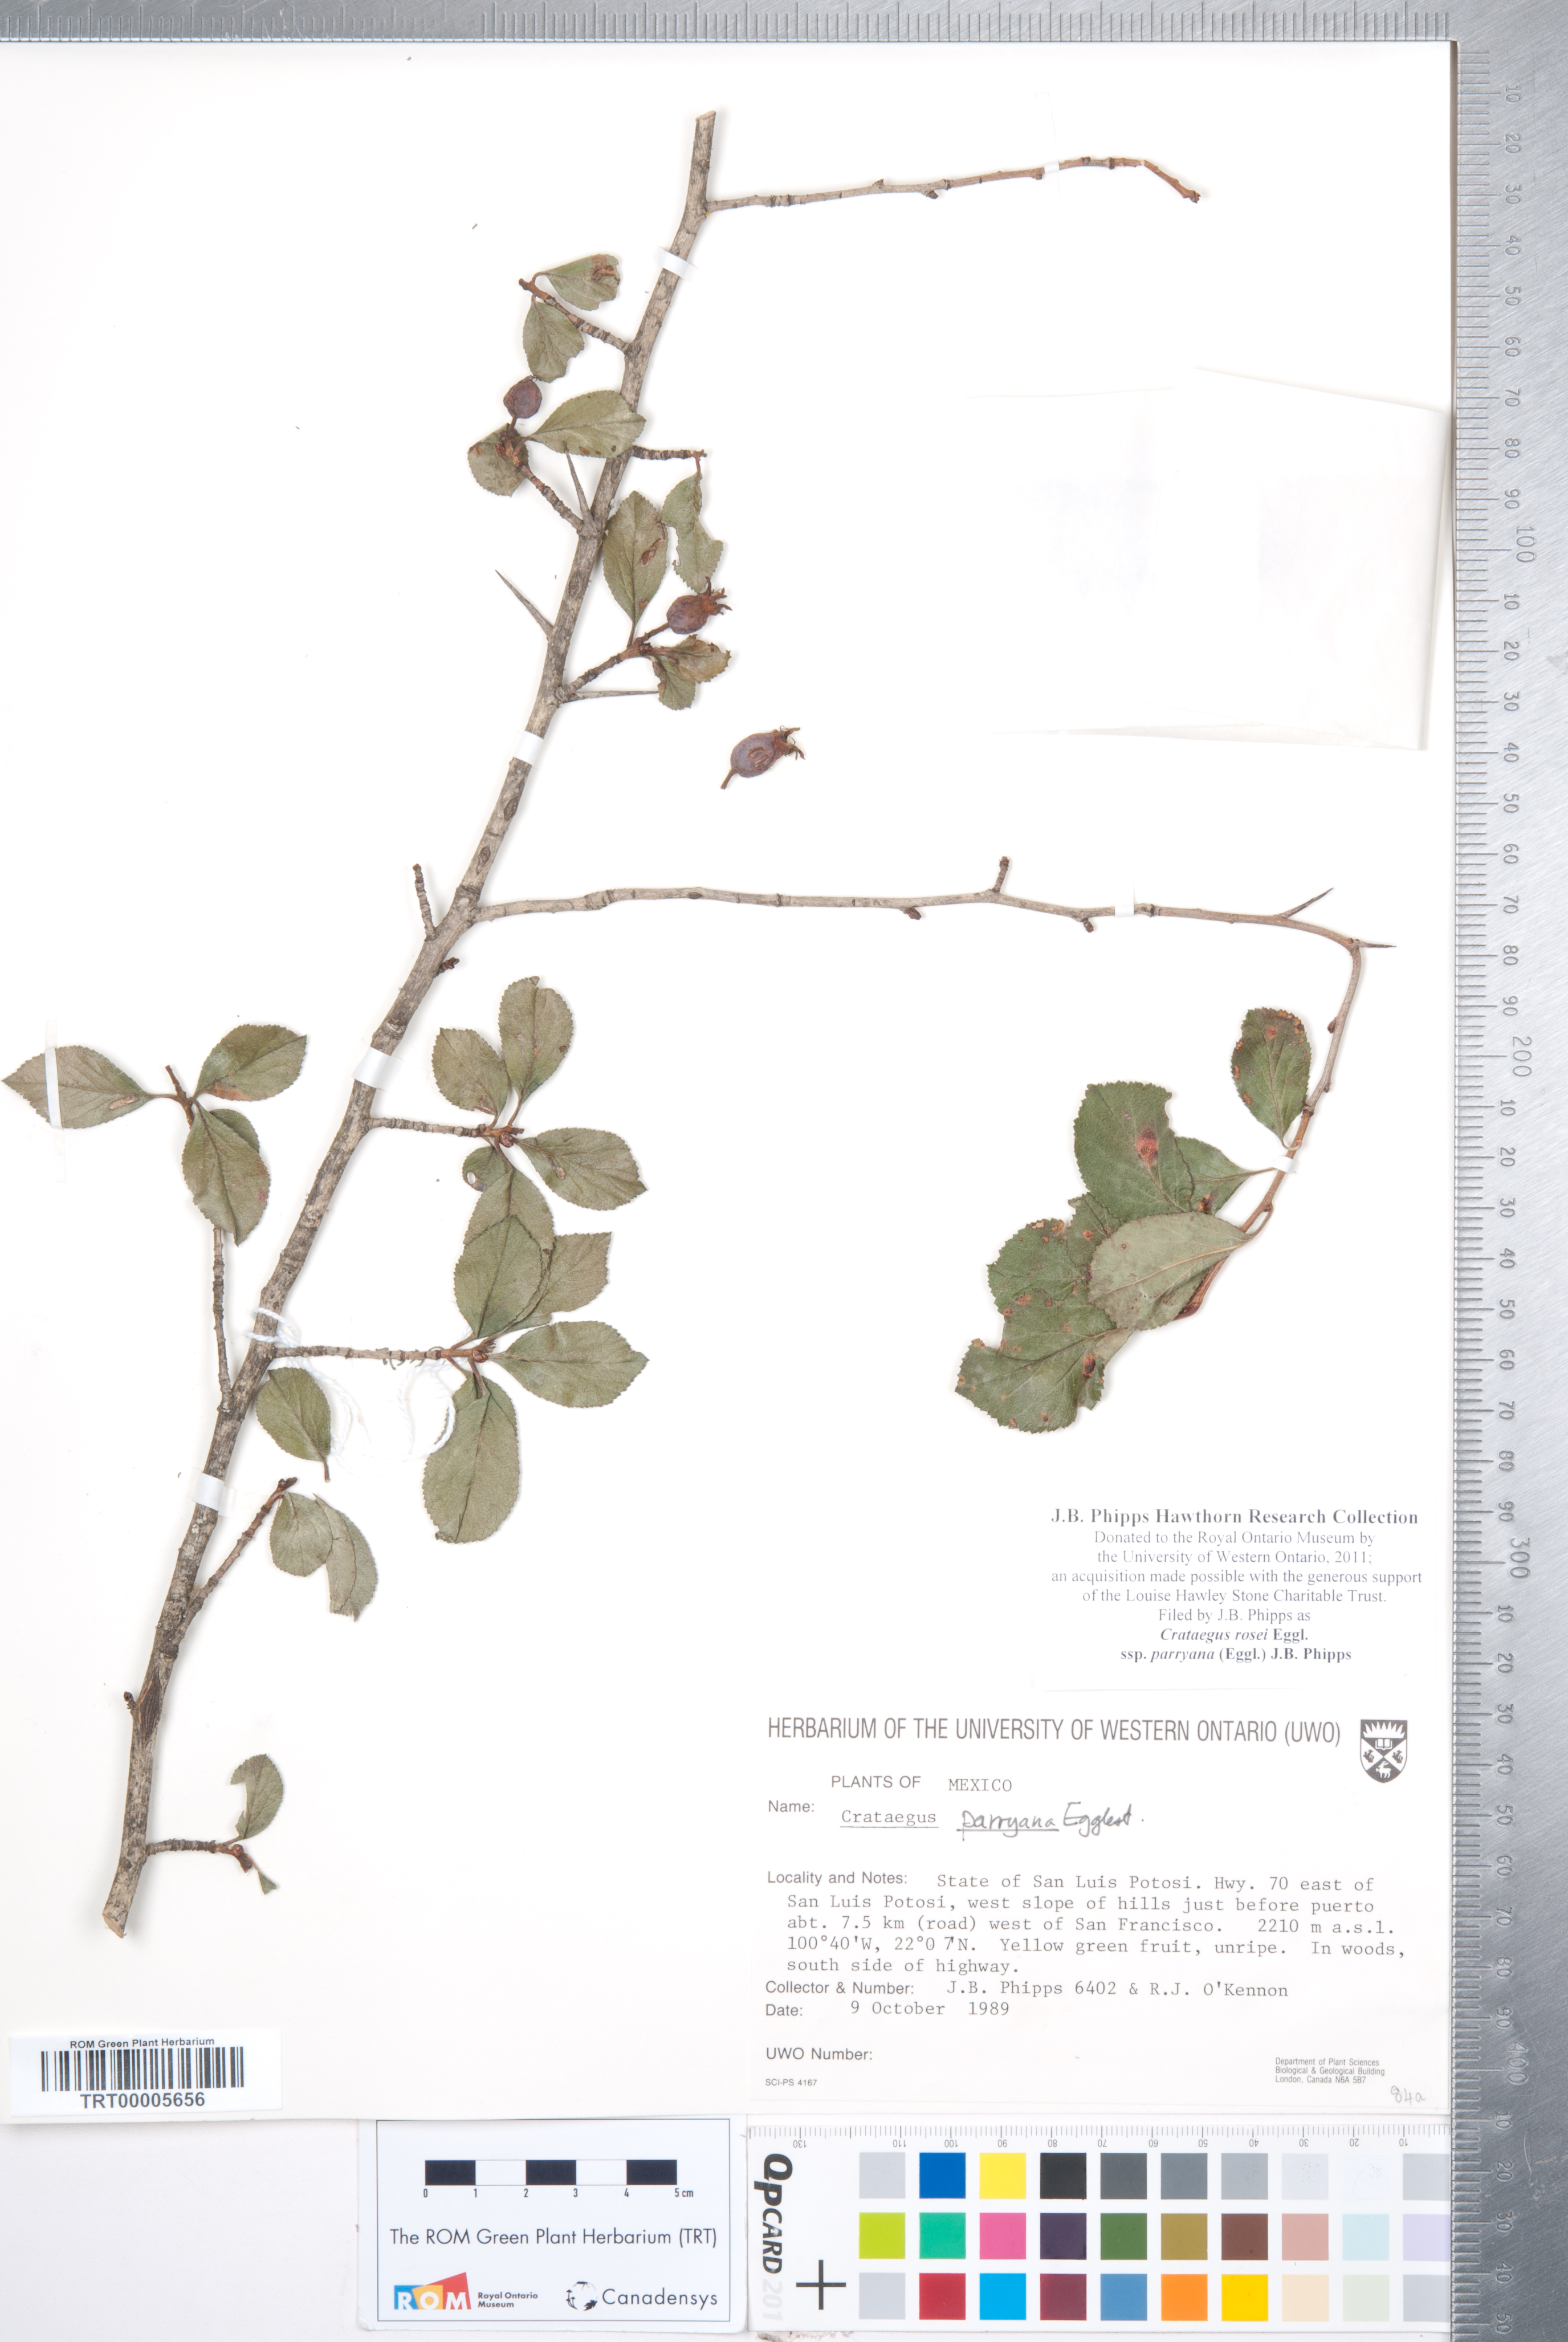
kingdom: Plantae
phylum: Tracheophyta
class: Magnoliopsida
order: Rosales
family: Rosaceae
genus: Crataegus
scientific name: Crataegus rosei
